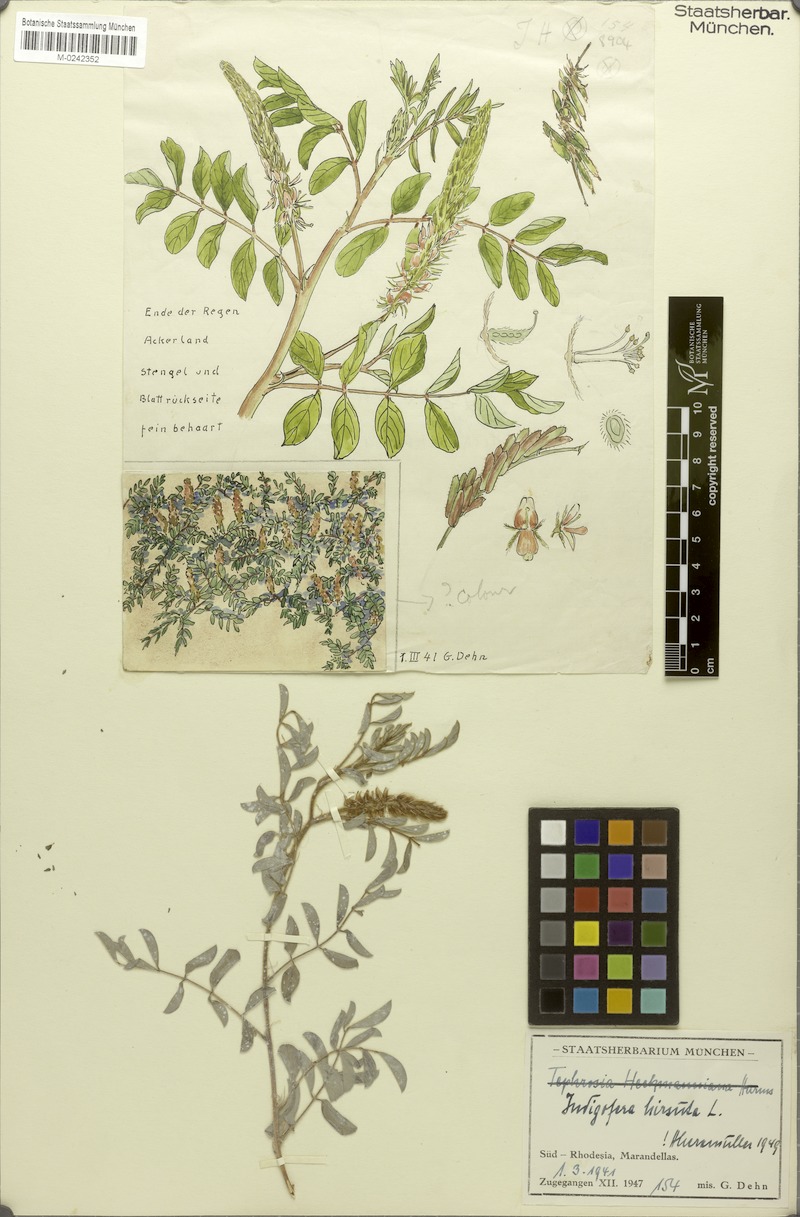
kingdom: Plantae
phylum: Tracheophyta
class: Magnoliopsida
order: Fabales
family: Fabaceae
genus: Indigofera
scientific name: Indigofera astragalina
